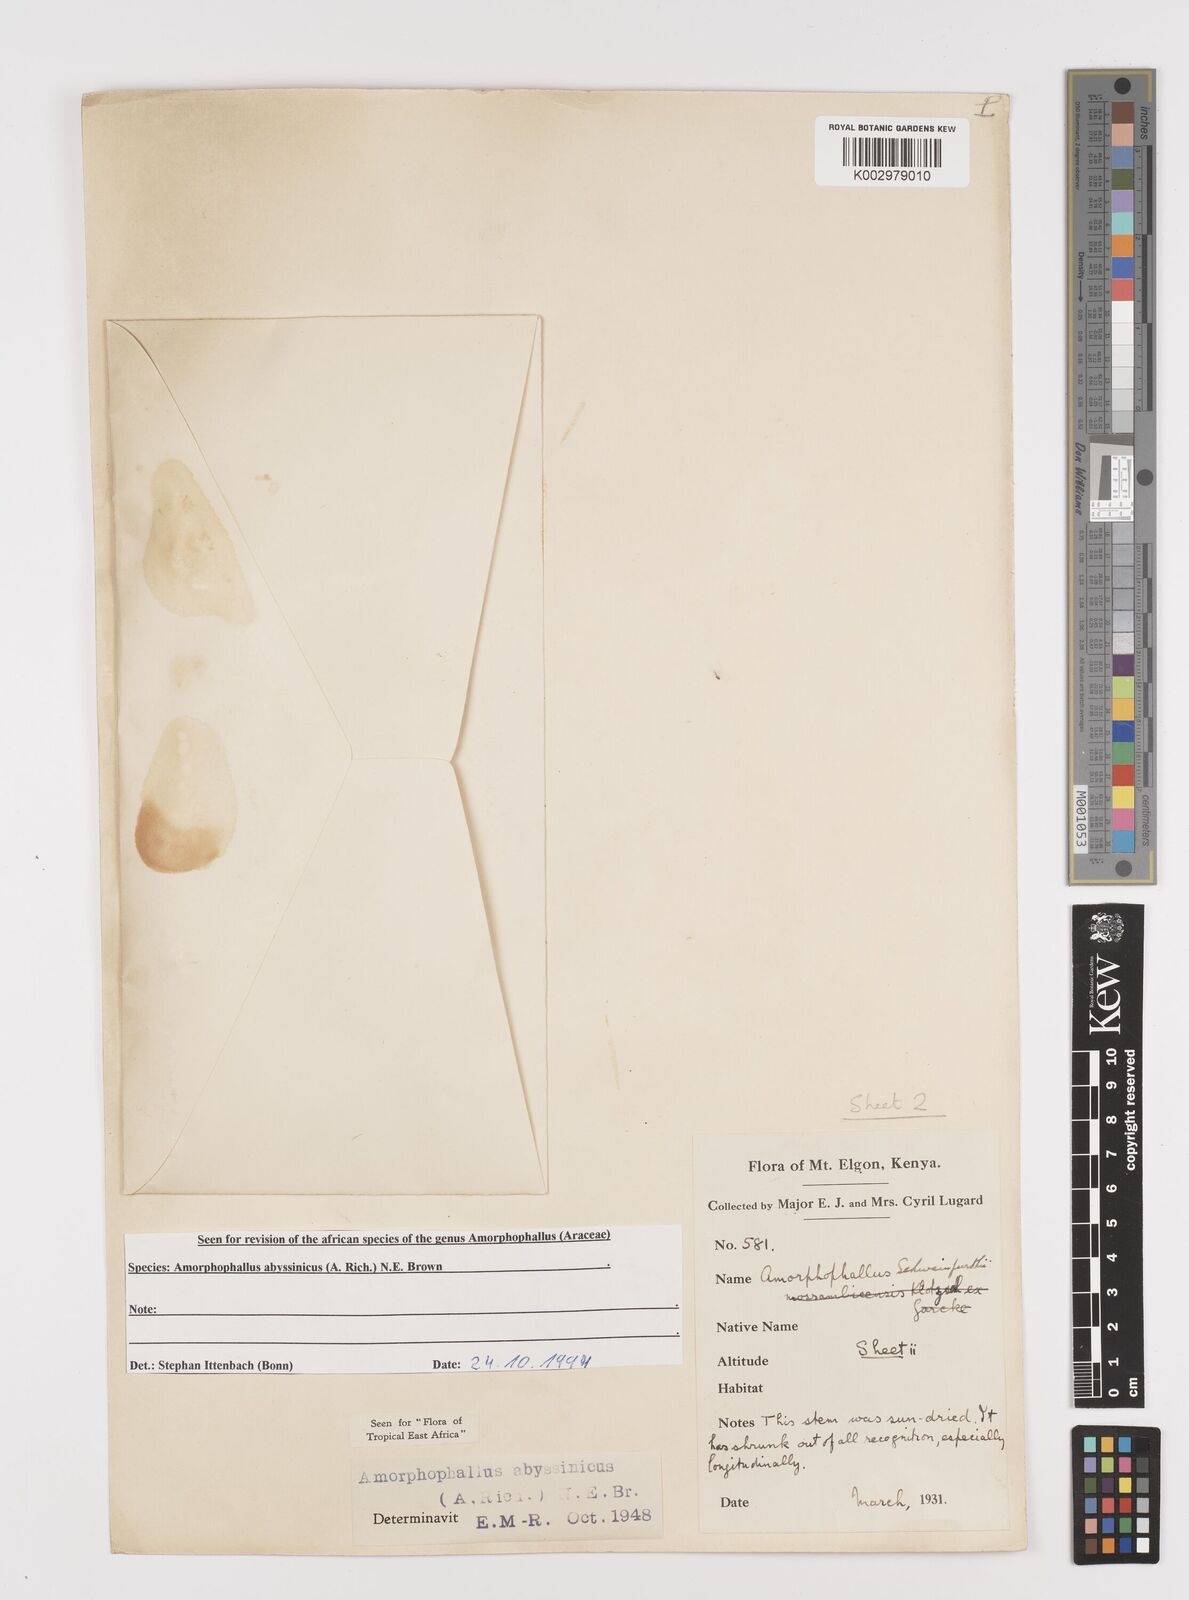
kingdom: Plantae
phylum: Tracheophyta
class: Liliopsida
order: Alismatales
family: Araceae
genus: Amorphophallus
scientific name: Amorphophallus abyssinicus
